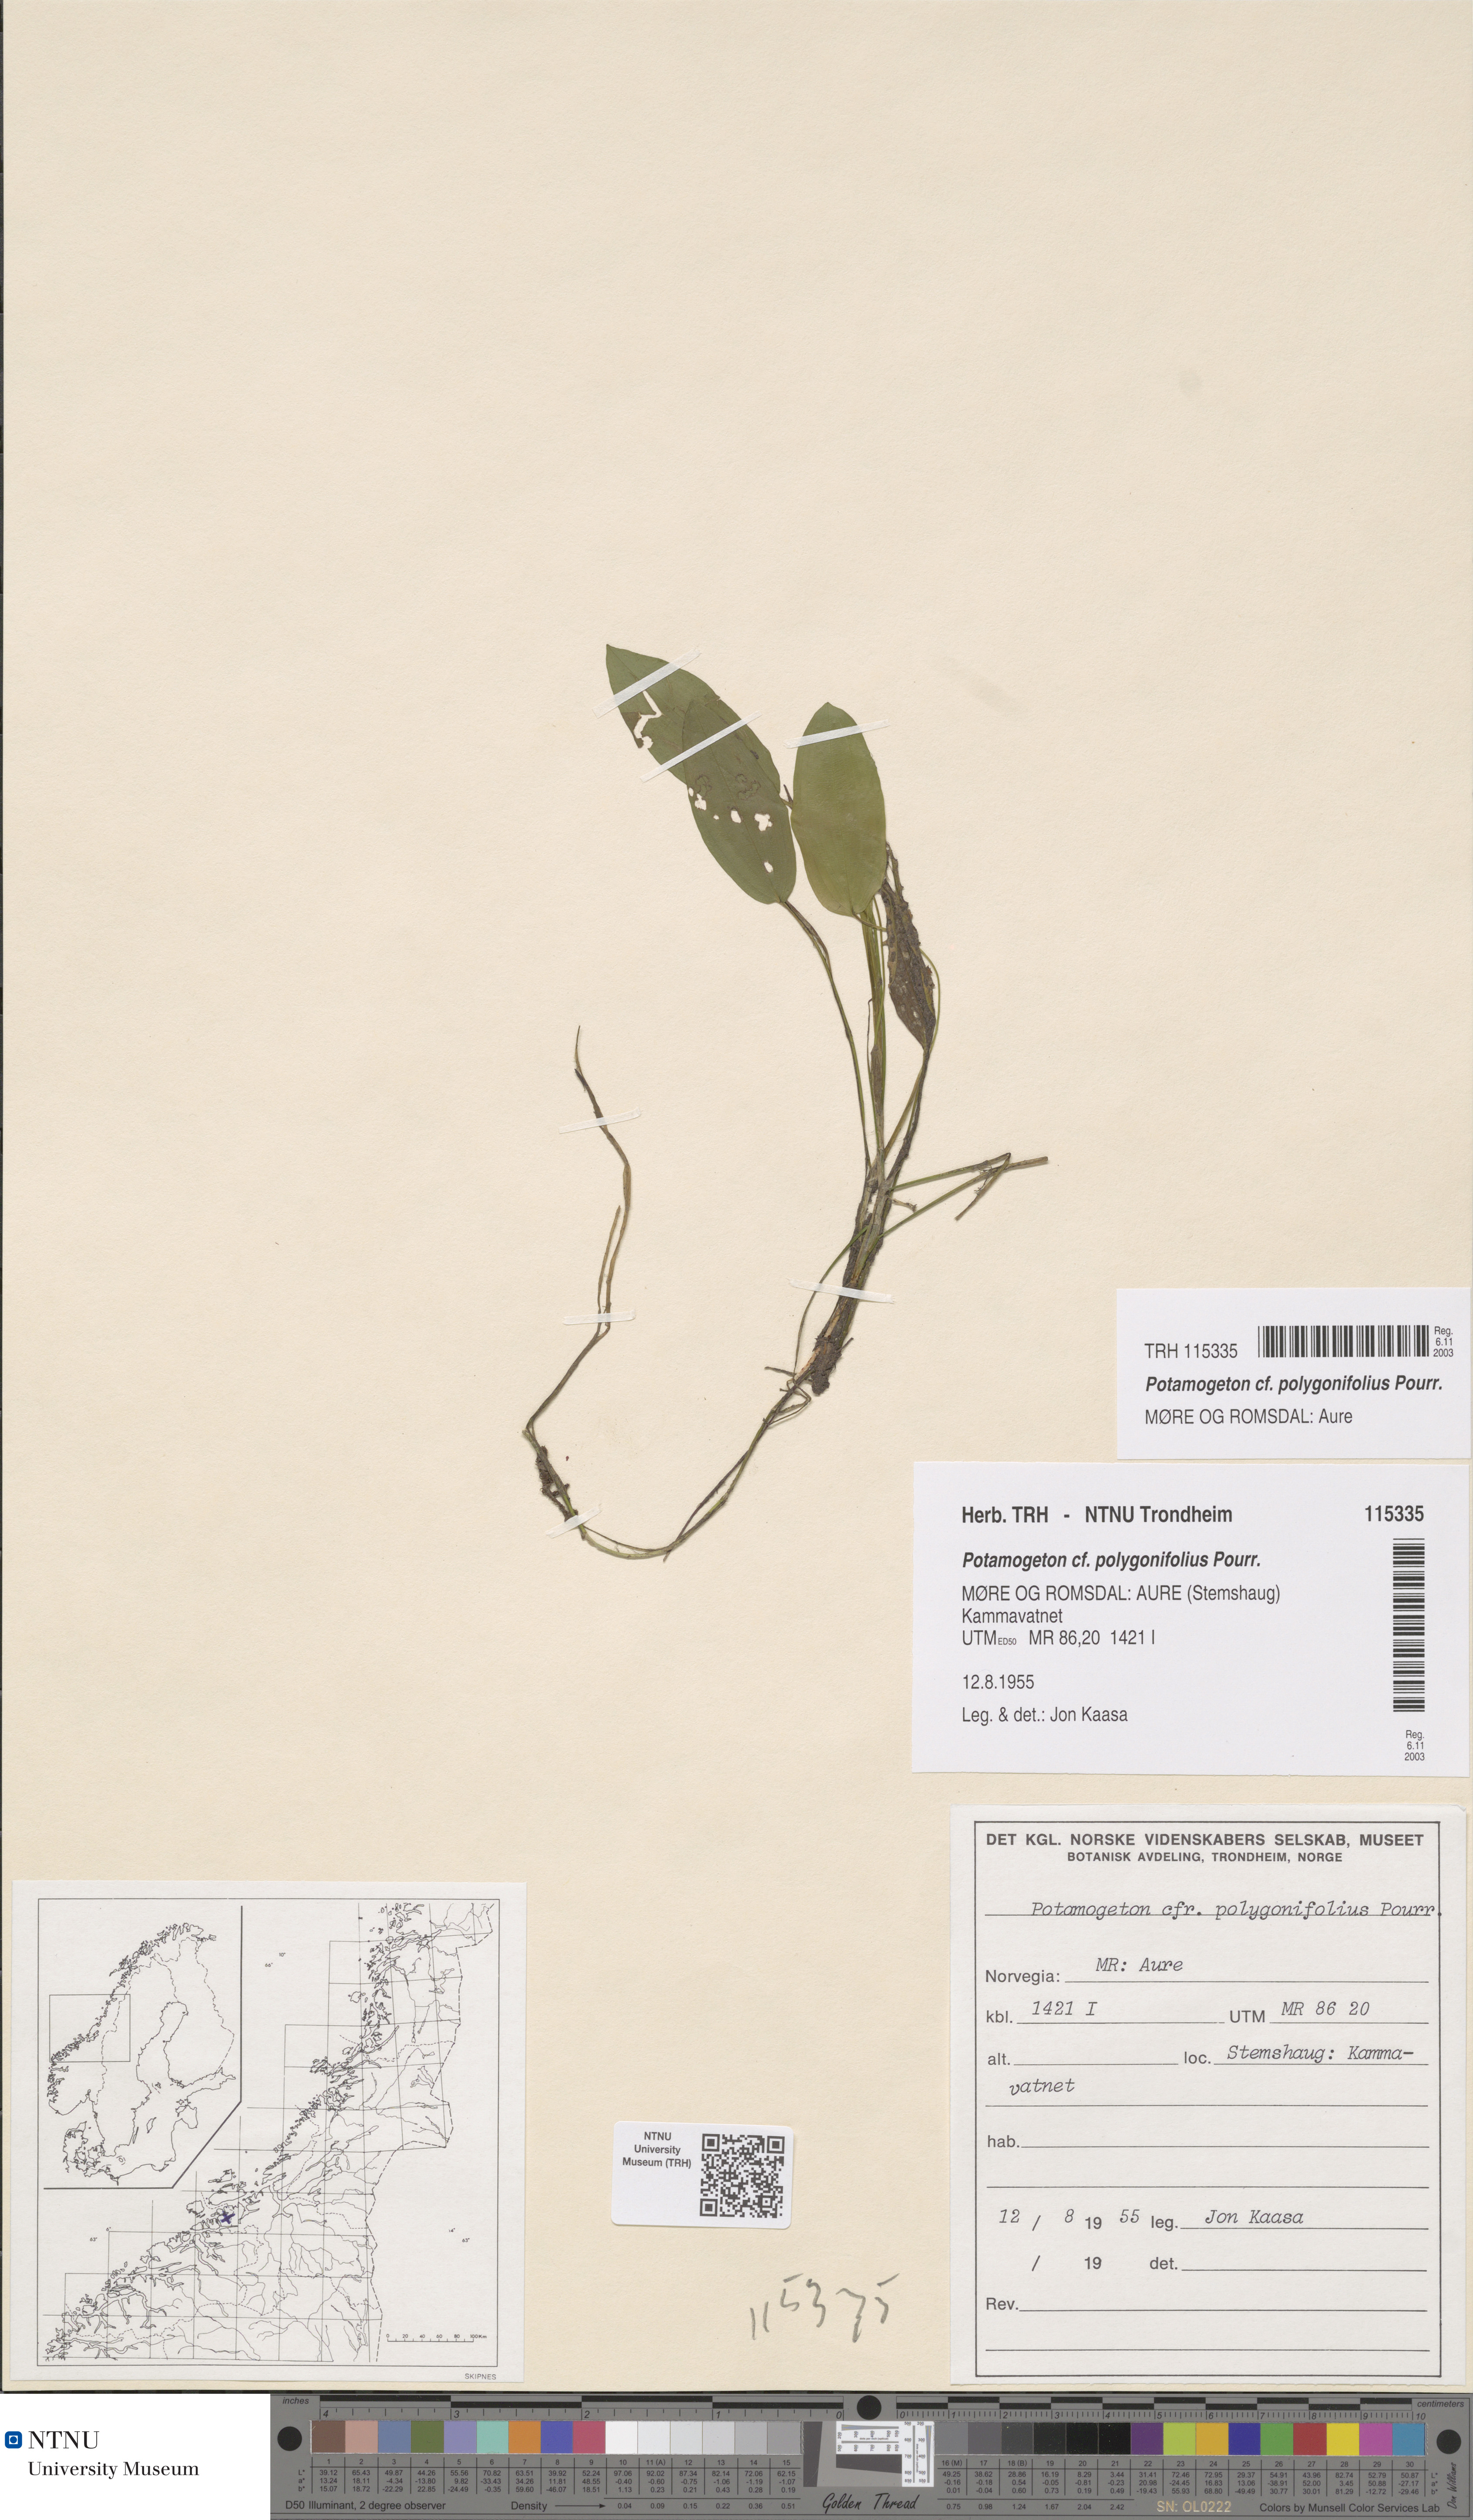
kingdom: Plantae
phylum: Tracheophyta
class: Liliopsida
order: Alismatales
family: Potamogetonaceae
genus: Potamogeton
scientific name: Potamogeton polygonifolius
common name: Bog pondweed
